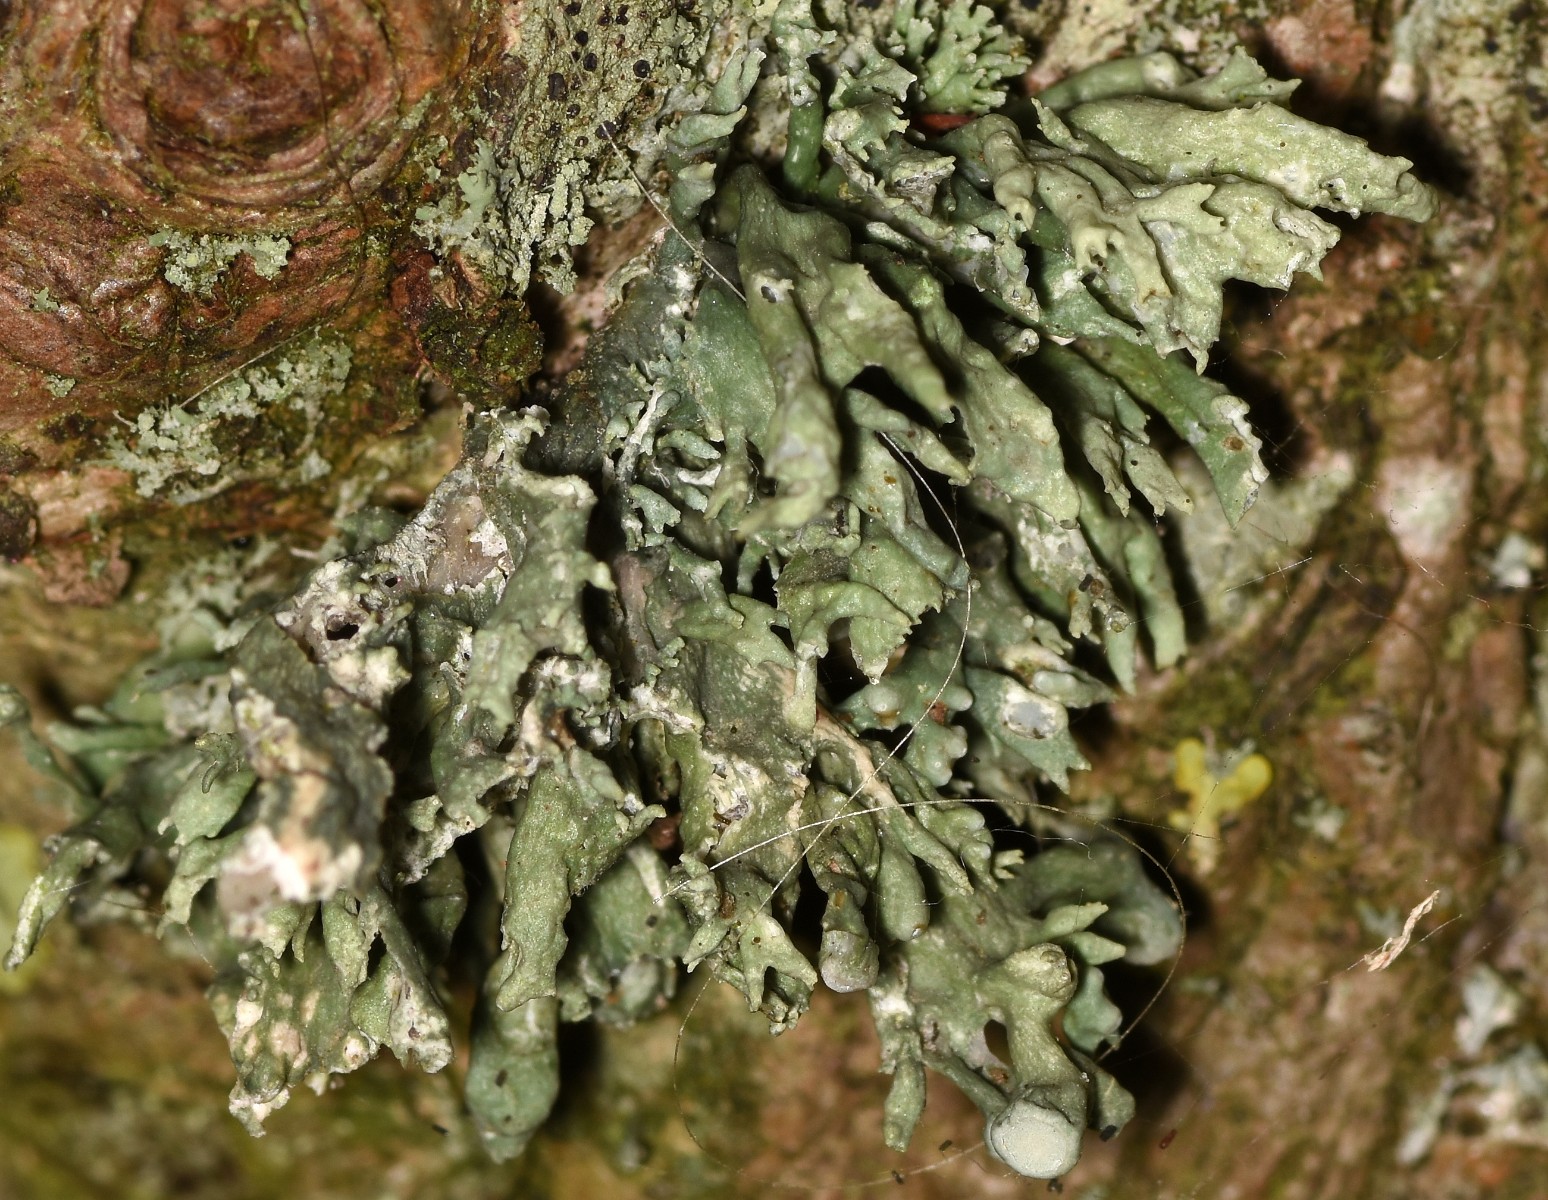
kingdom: Fungi
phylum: Ascomycota
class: Lecanoromycetes
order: Lecanorales
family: Ramalinaceae
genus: Ramalina
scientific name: Ramalina fastigiata
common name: tue-grenlav
